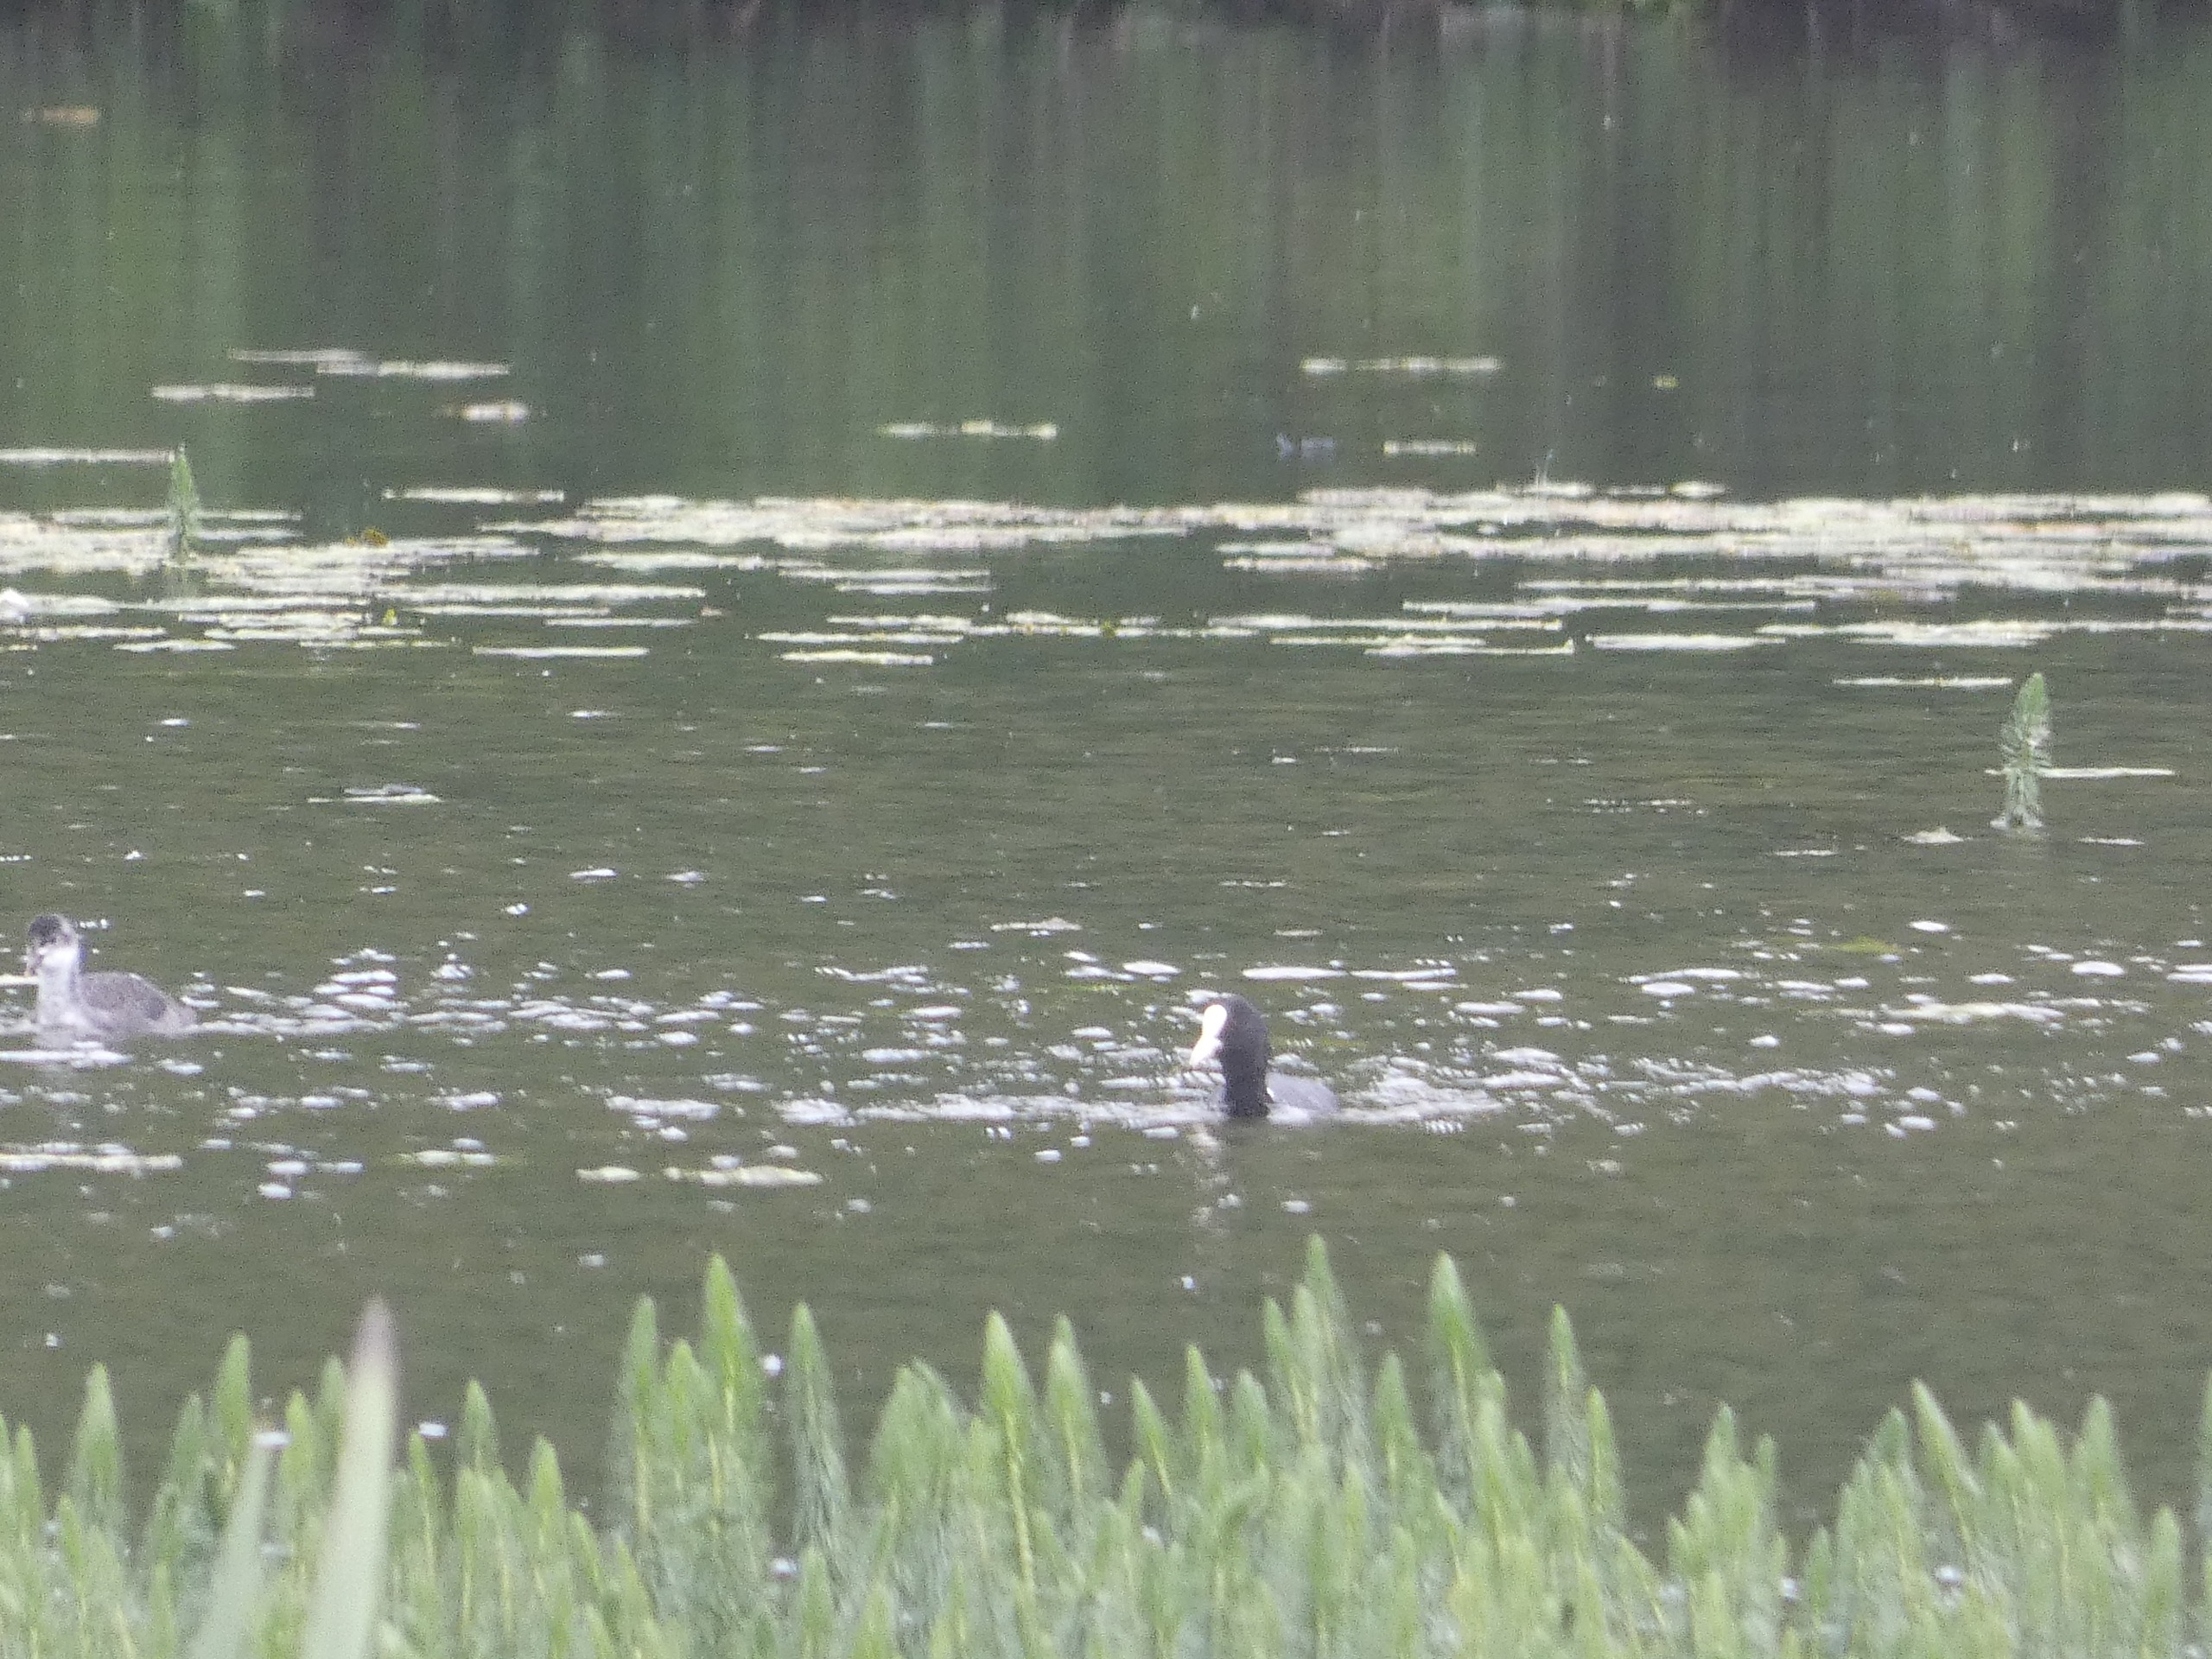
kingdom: Animalia
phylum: Chordata
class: Aves
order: Gruiformes
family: Rallidae
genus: Fulica
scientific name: Fulica atra
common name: Blishøne
